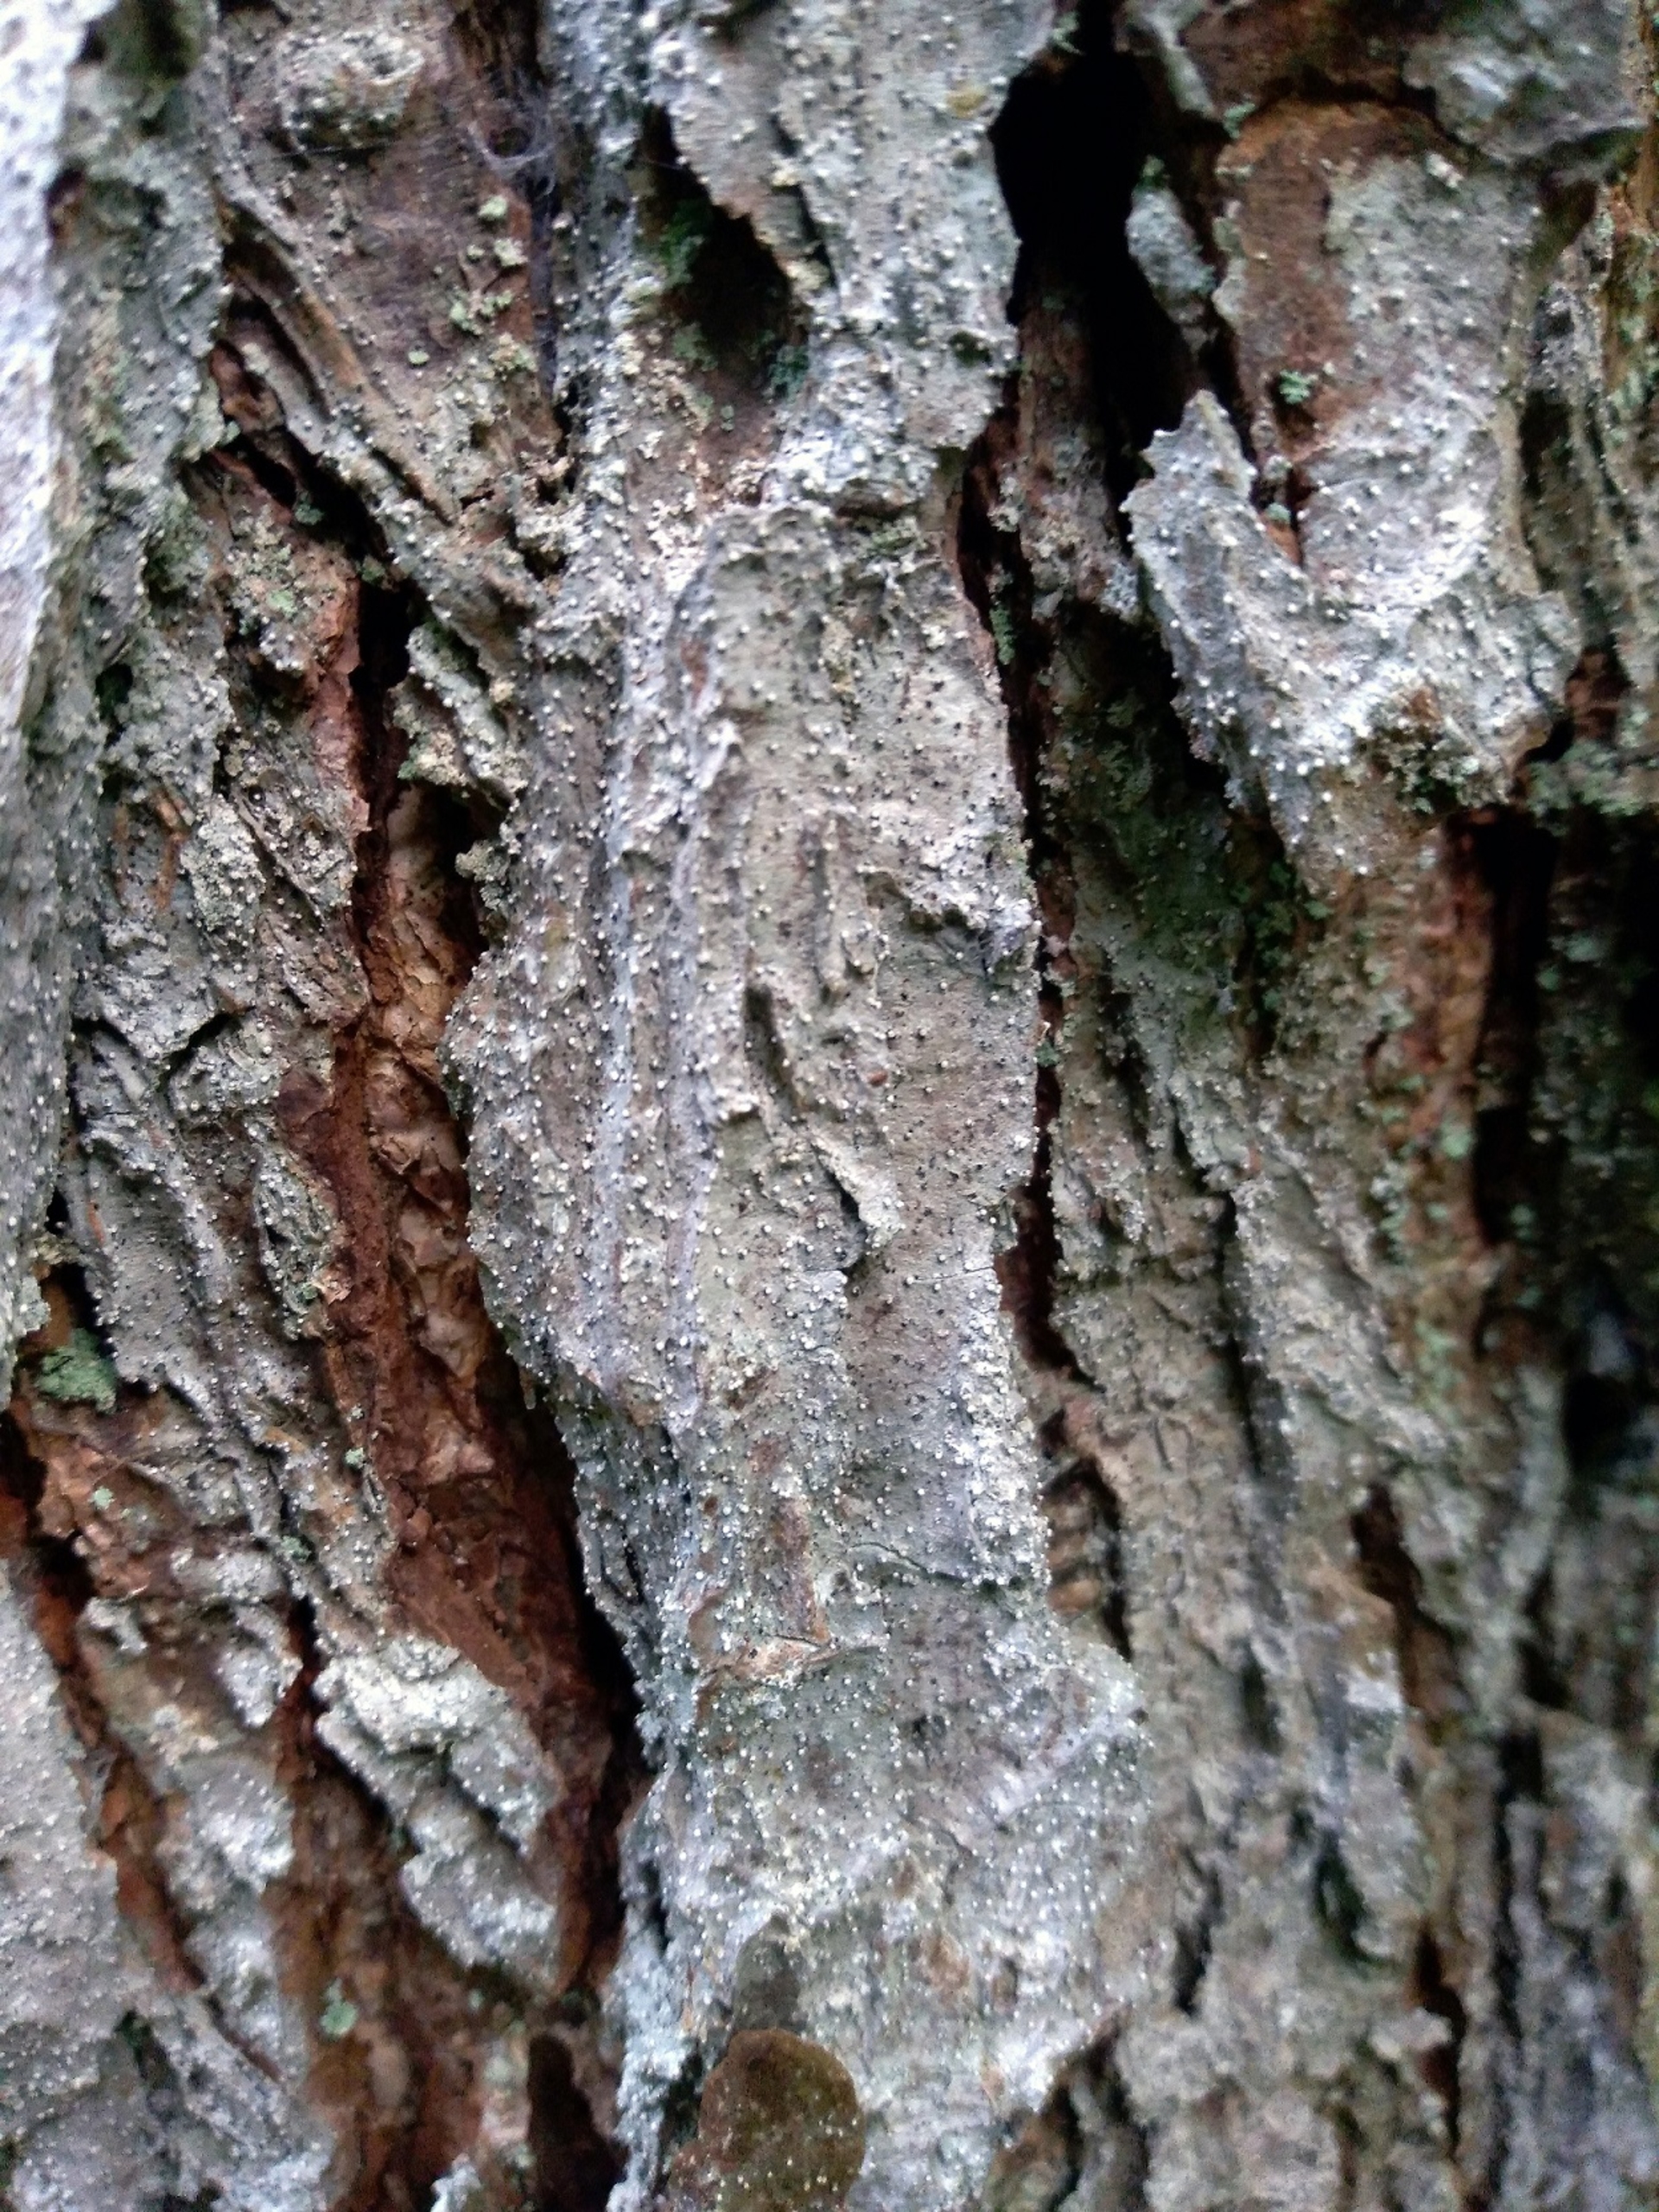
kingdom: Fungi
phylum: Ascomycota
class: Arthoniomycetes
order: Arthoniales
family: Roccellaceae
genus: Lecanactis
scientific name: Lecanactis abietina
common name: Grå dugskivelav
